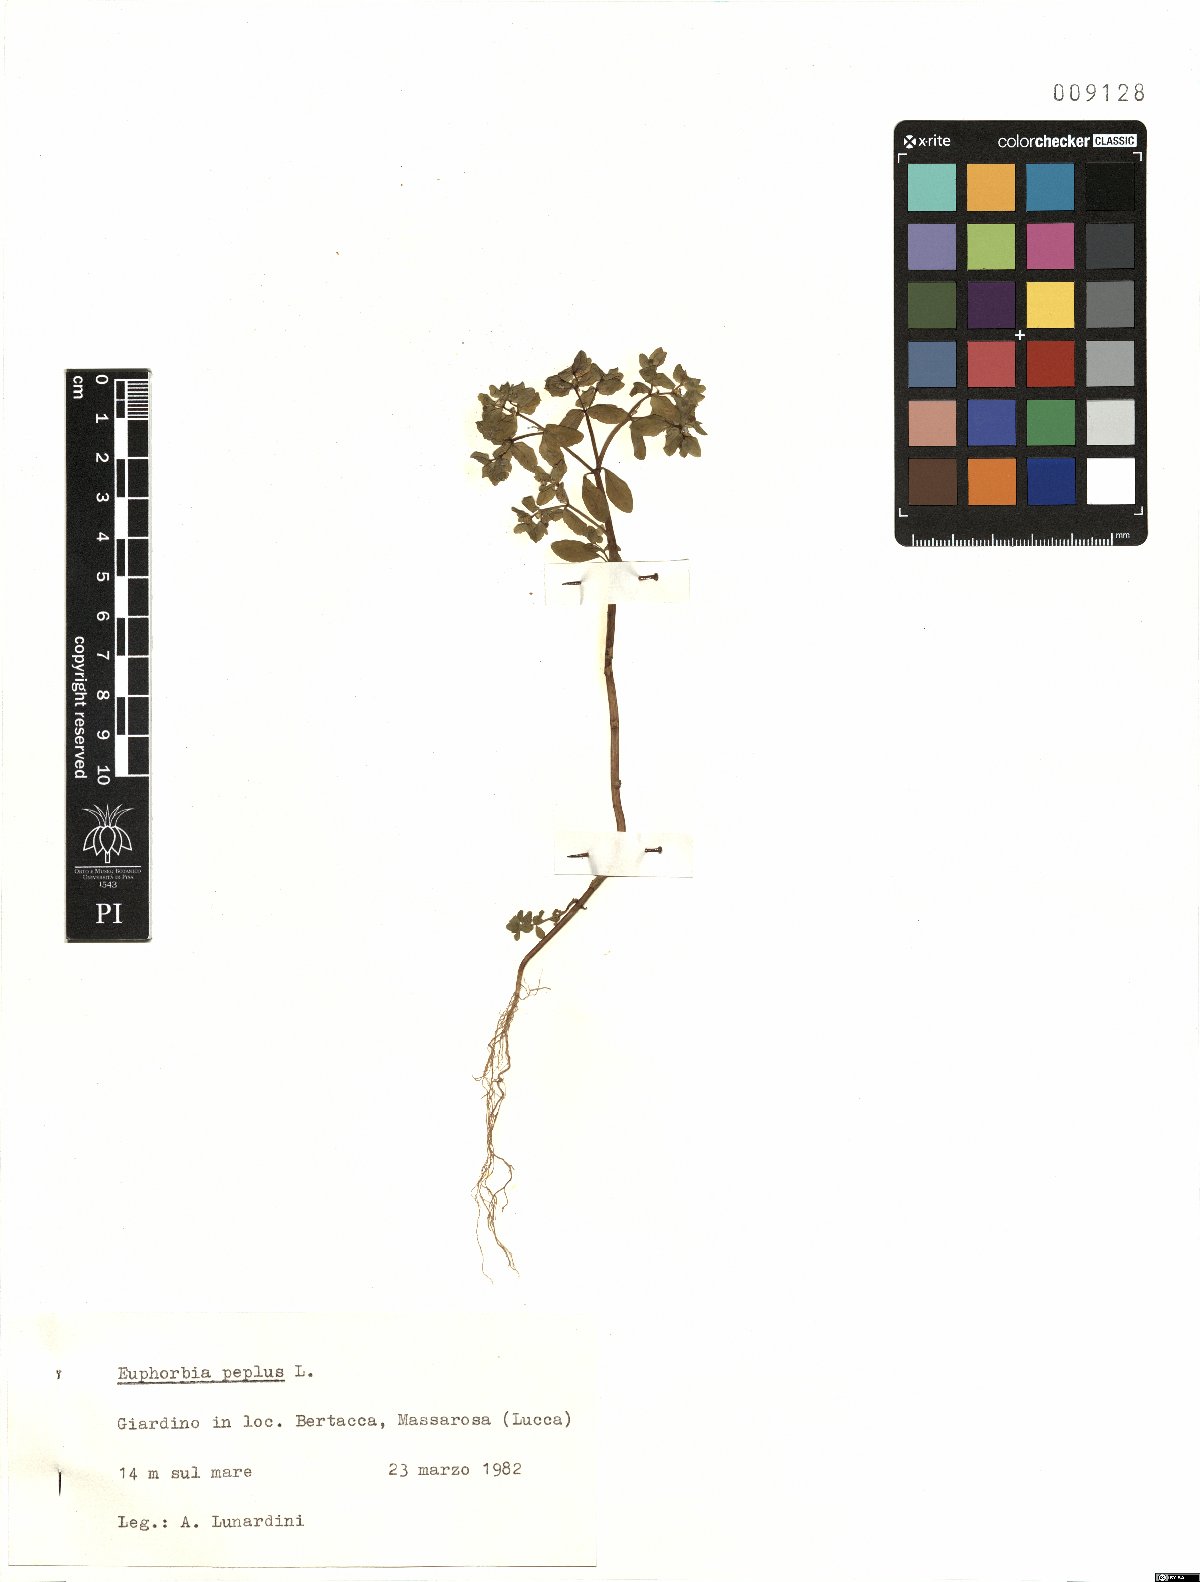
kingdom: Plantae
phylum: Tracheophyta
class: Magnoliopsida
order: Malpighiales
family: Euphorbiaceae
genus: Euphorbia
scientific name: Euphorbia peplus
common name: Petty spurge
